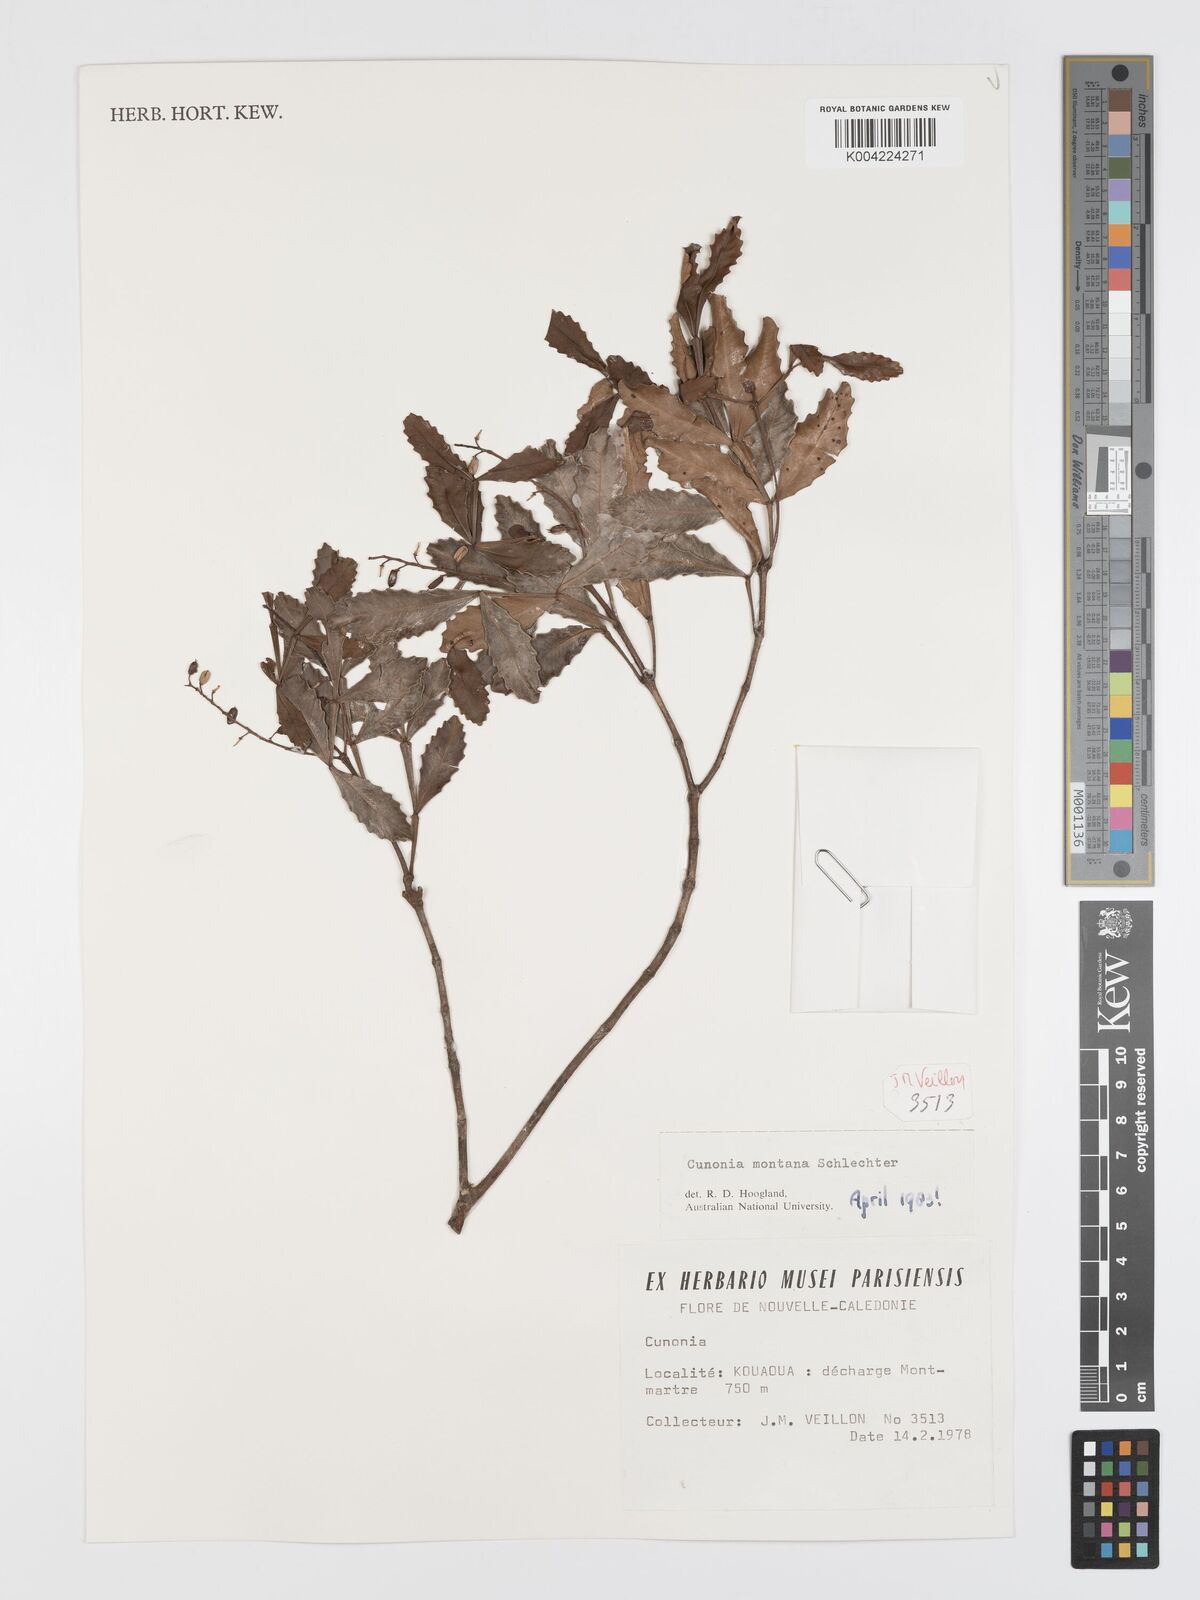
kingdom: Plantae
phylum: Tracheophyta
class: Magnoliopsida
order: Oxalidales
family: Cunoniaceae
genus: Cunonia
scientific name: Cunonia montana
